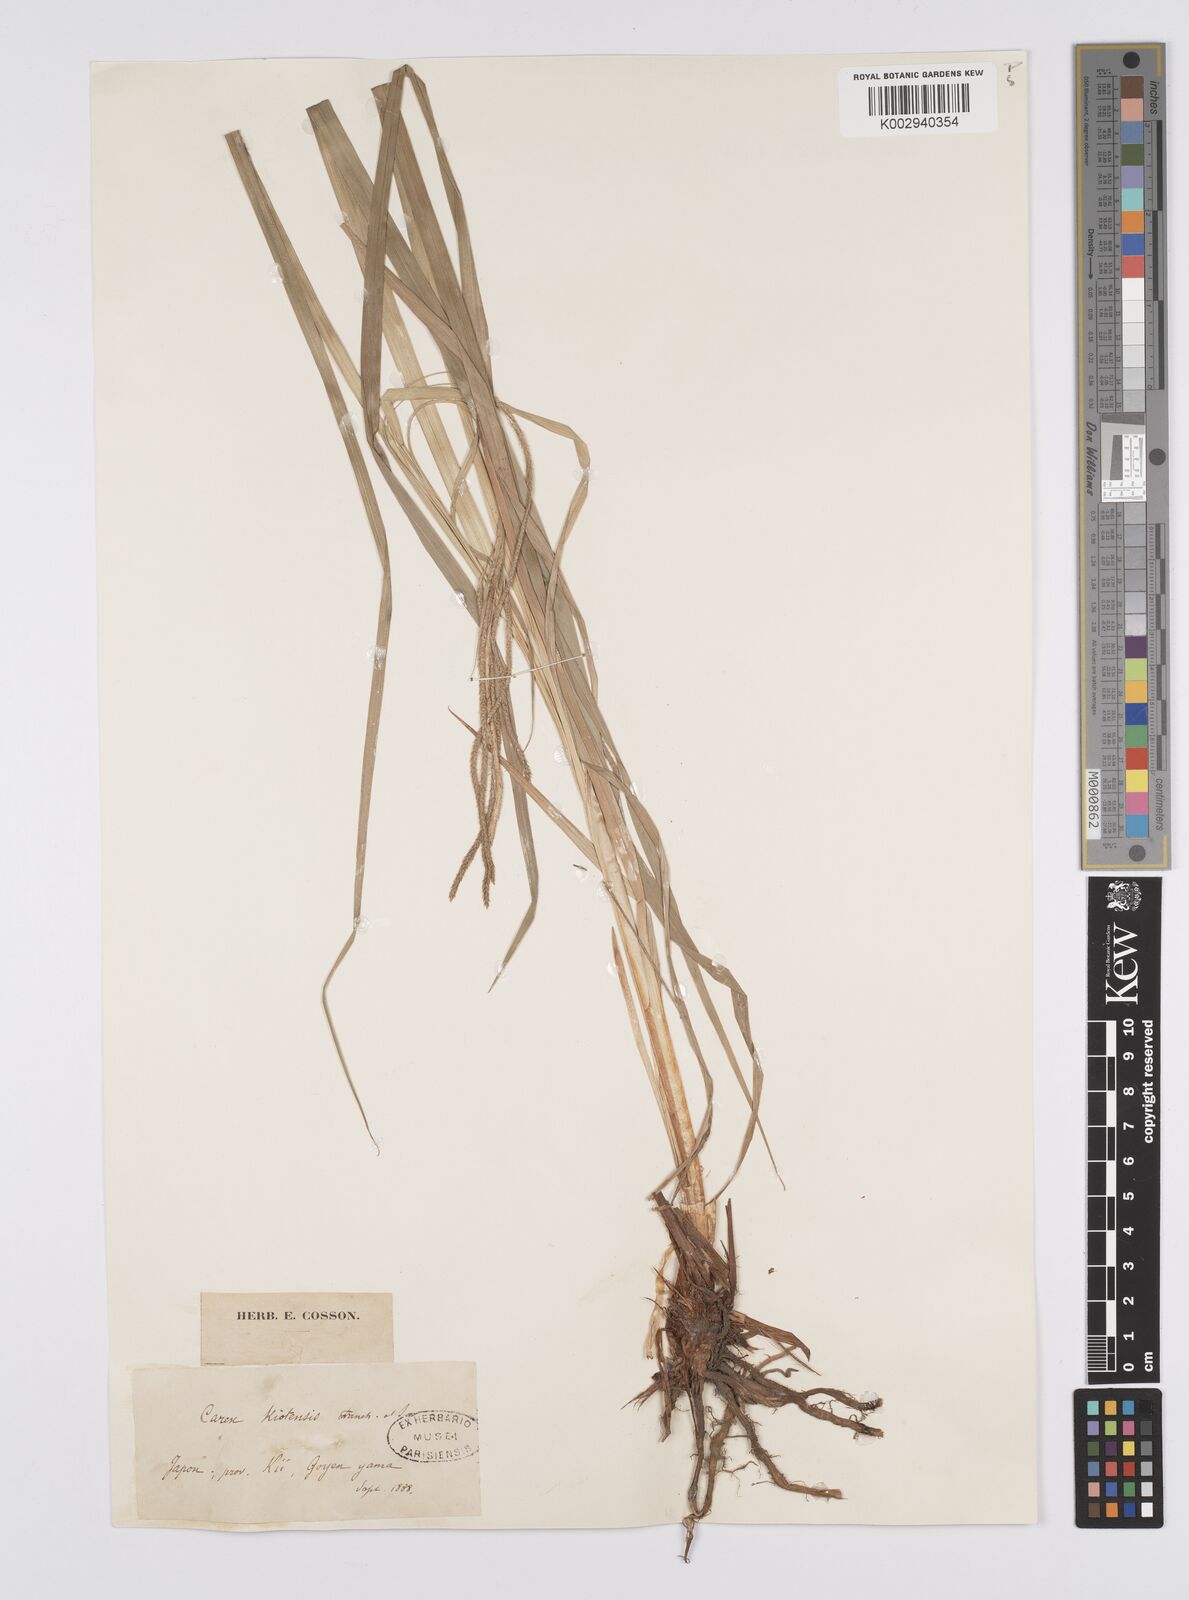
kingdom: Plantae
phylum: Tracheophyta
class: Liliopsida
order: Poales
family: Cyperaceae
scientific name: Cyperaceae
